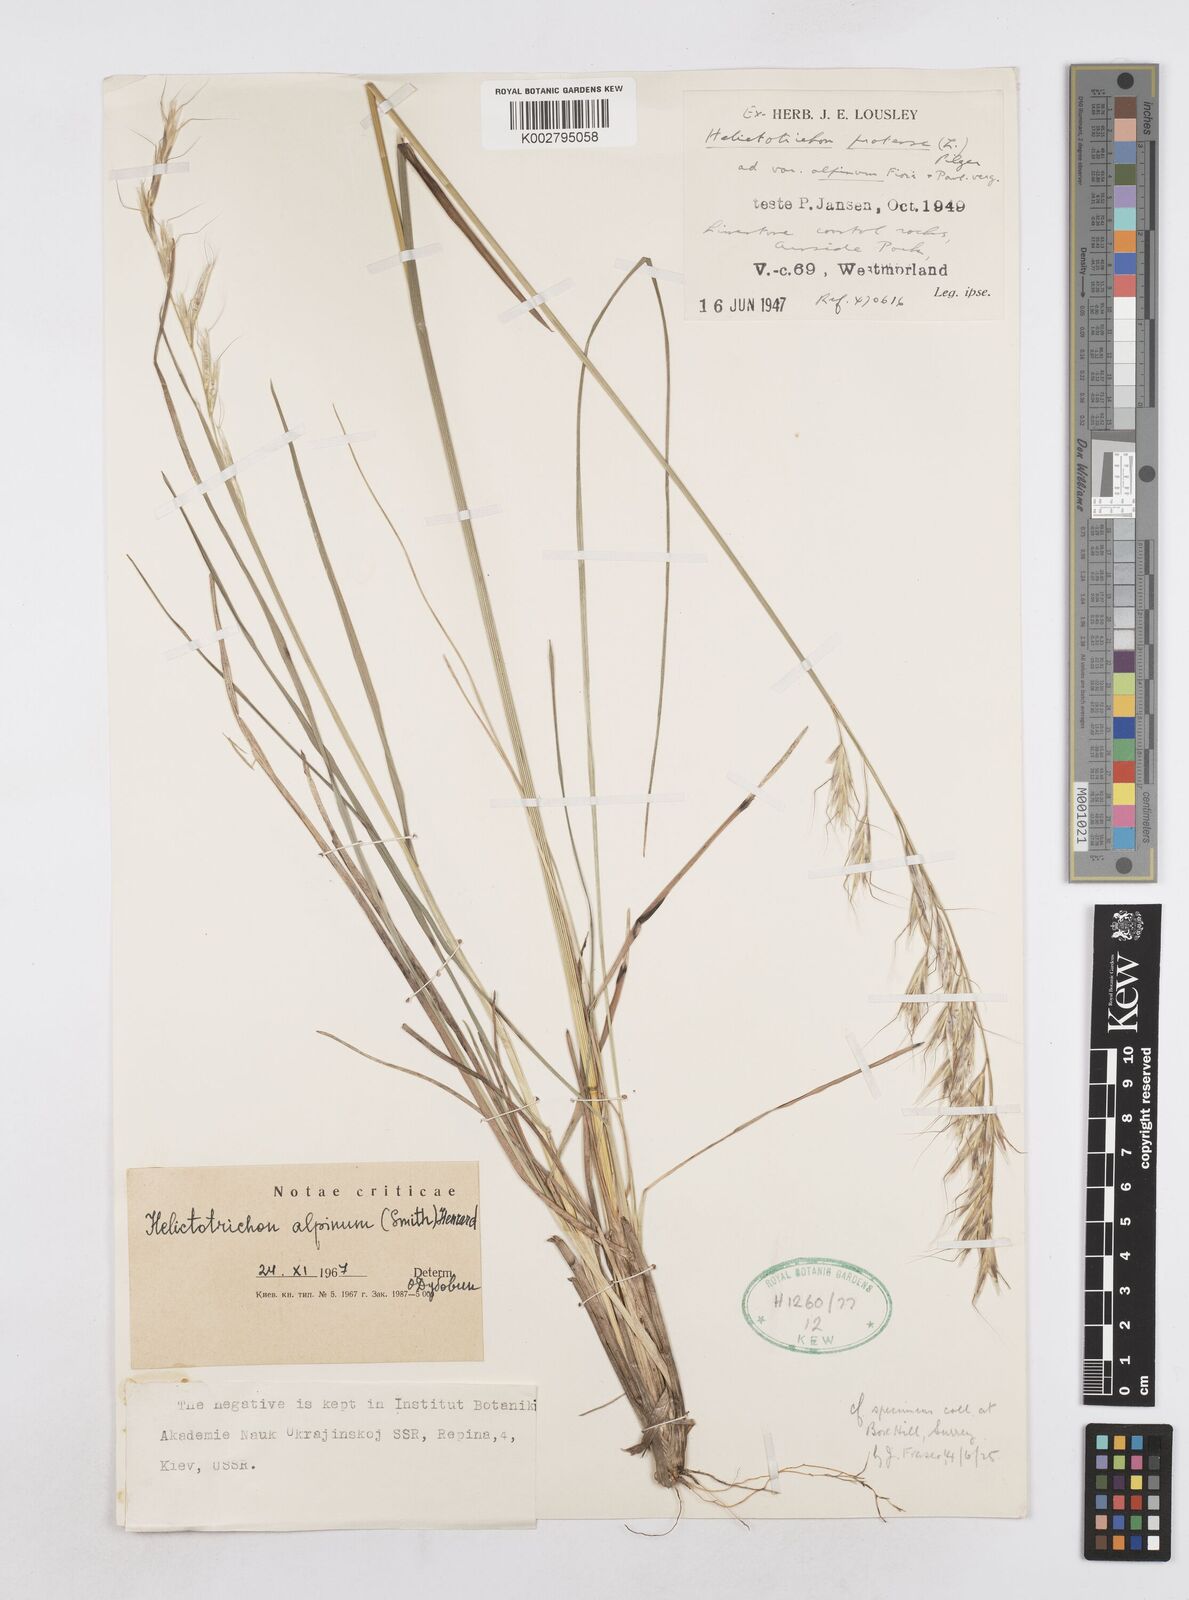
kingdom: Plantae
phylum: Tracheophyta
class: Liliopsida
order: Poales
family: Poaceae
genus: Helictochloa
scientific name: Helictochloa pratensis
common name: Meadow oat grass
